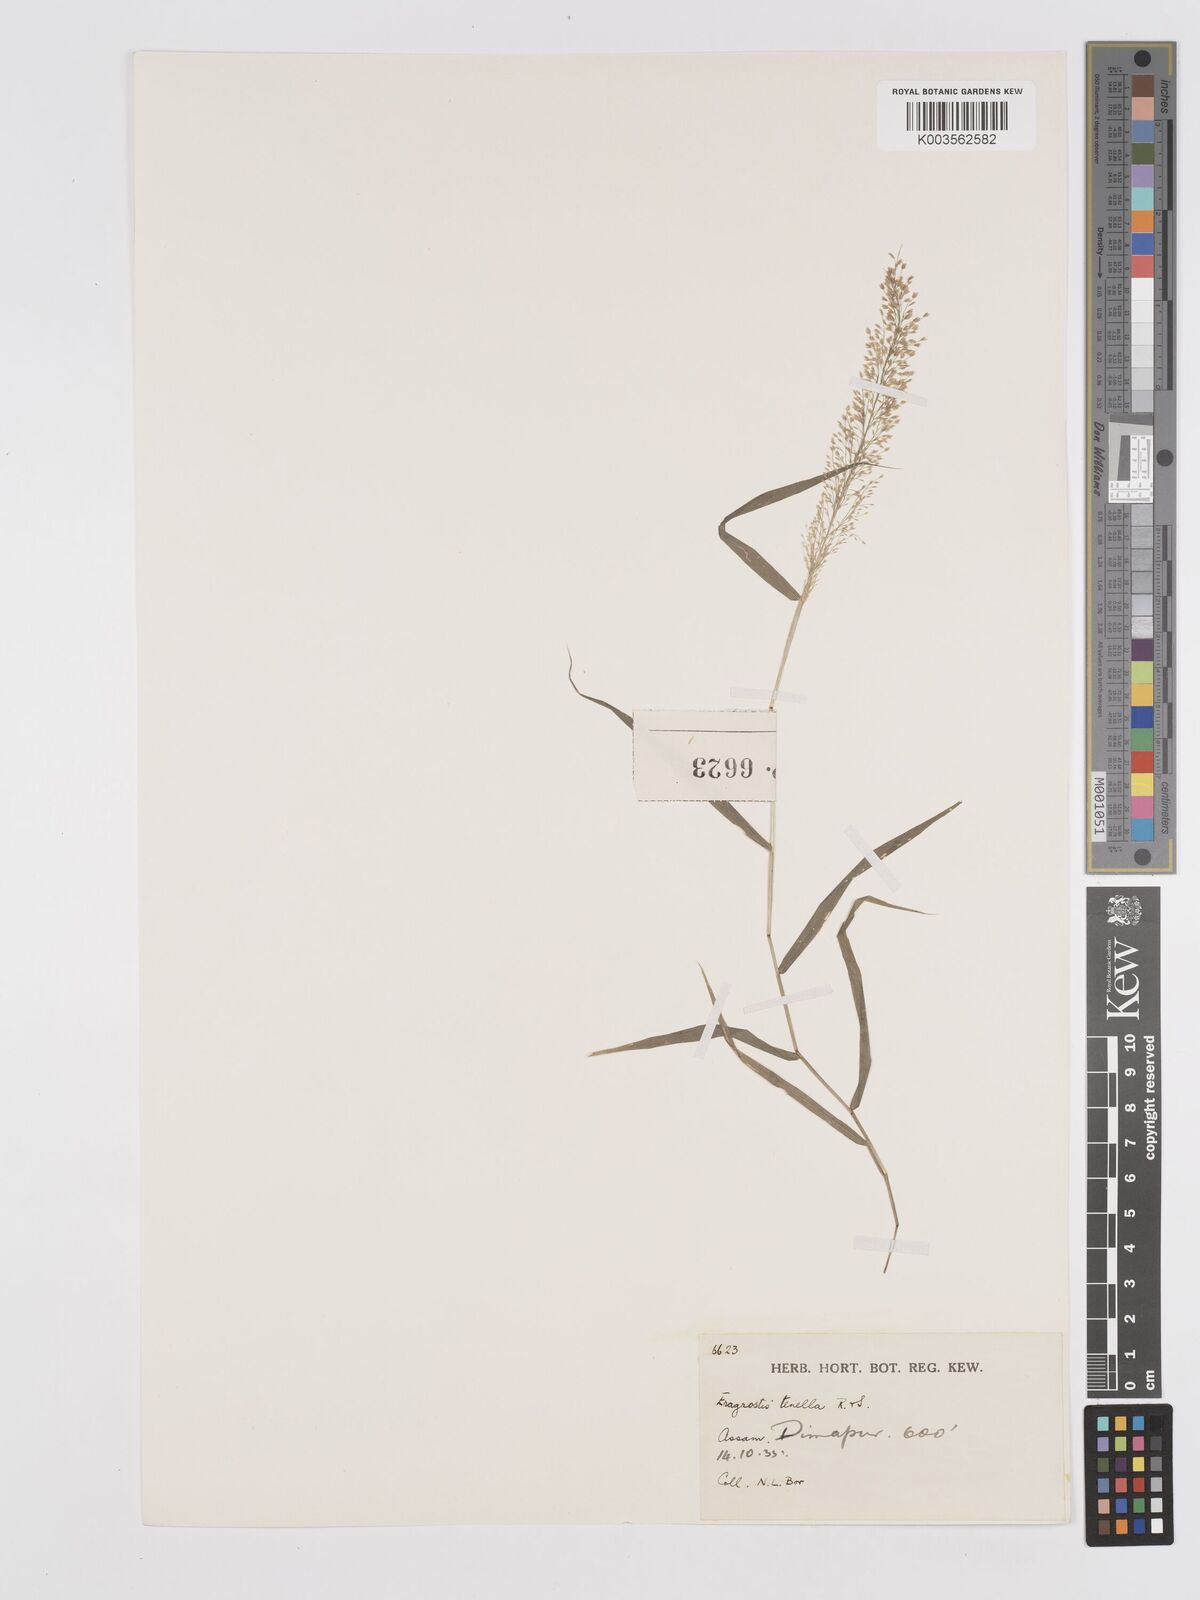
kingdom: Plantae
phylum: Tracheophyta
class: Liliopsida
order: Poales
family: Poaceae
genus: Eragrostis
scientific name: Eragrostis tenella
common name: Japanese lovegrass
